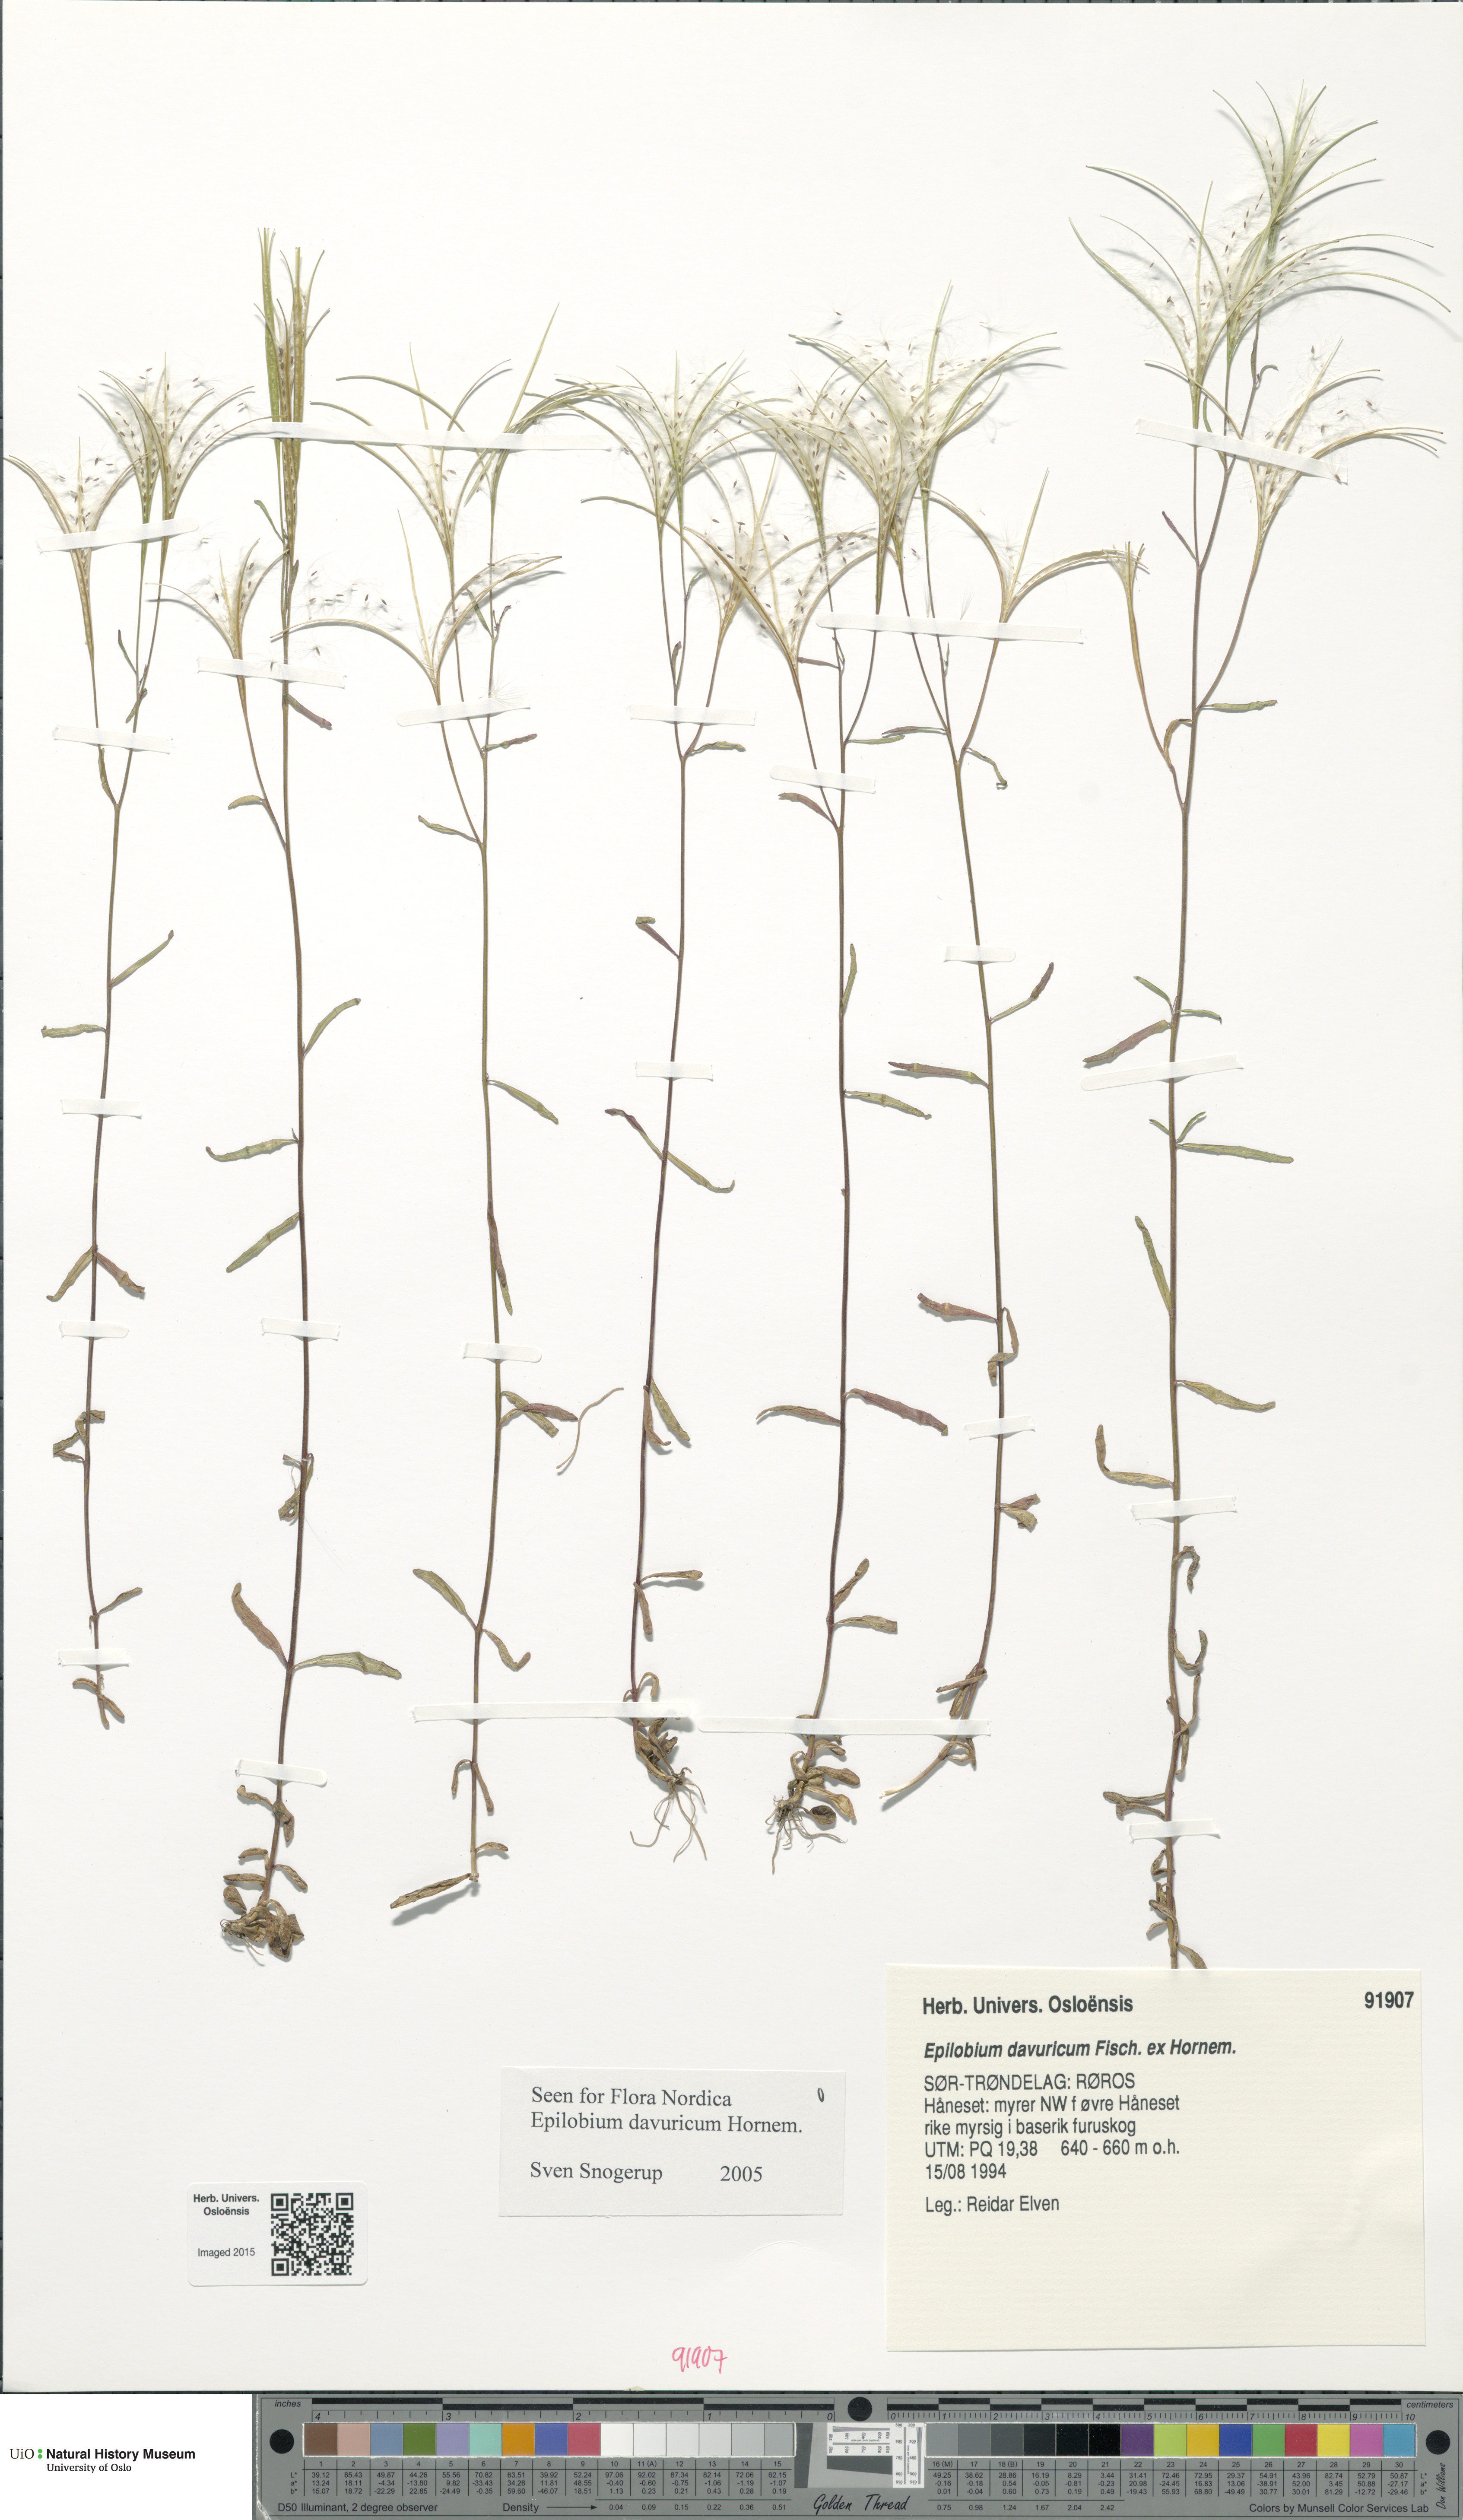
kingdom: Plantae
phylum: Tracheophyta
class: Magnoliopsida
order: Myrtales
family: Onagraceae
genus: Epilobium
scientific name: Epilobium davuricum
